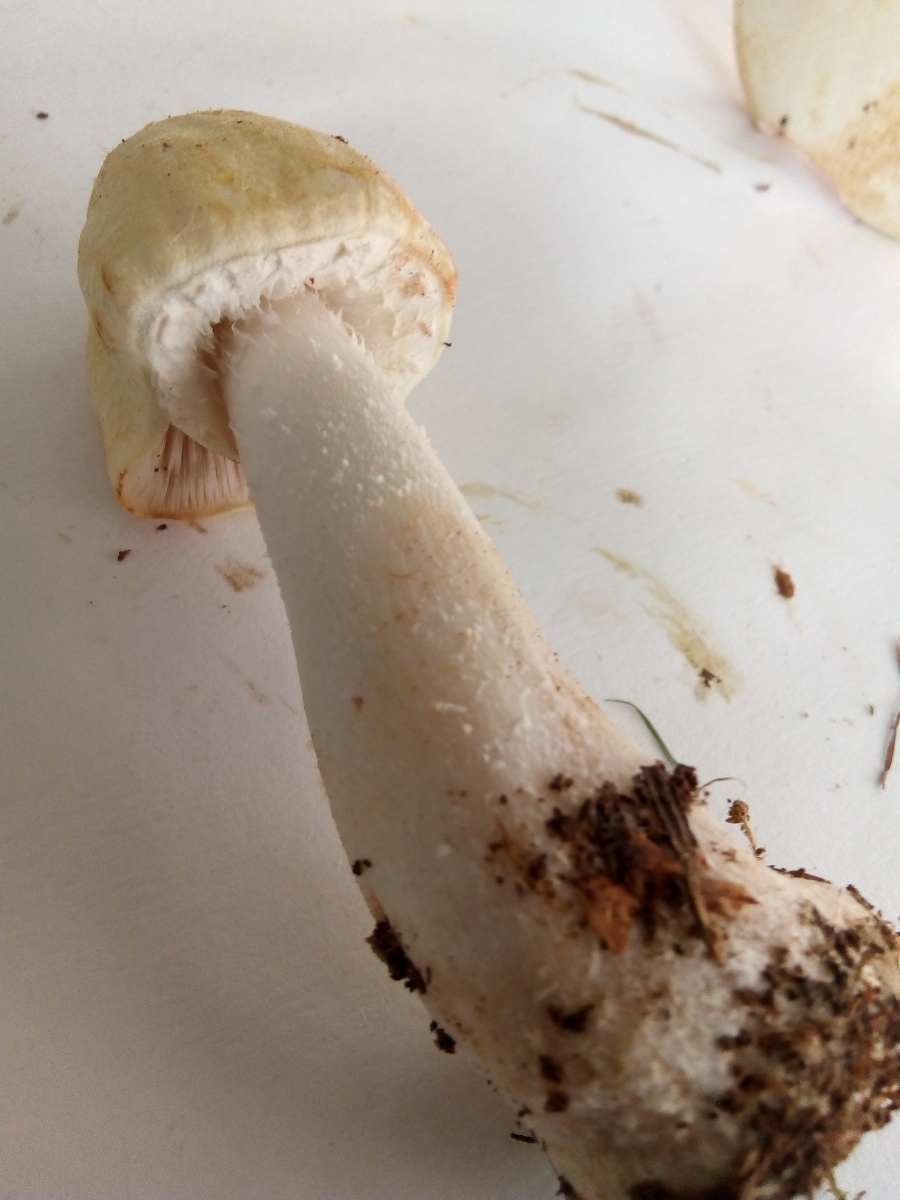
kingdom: Fungi
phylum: Basidiomycota
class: Agaricomycetes
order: Agaricales
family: Agaricaceae
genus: Agaricus
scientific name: Agaricus sylvicola
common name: gulhvid champignon
